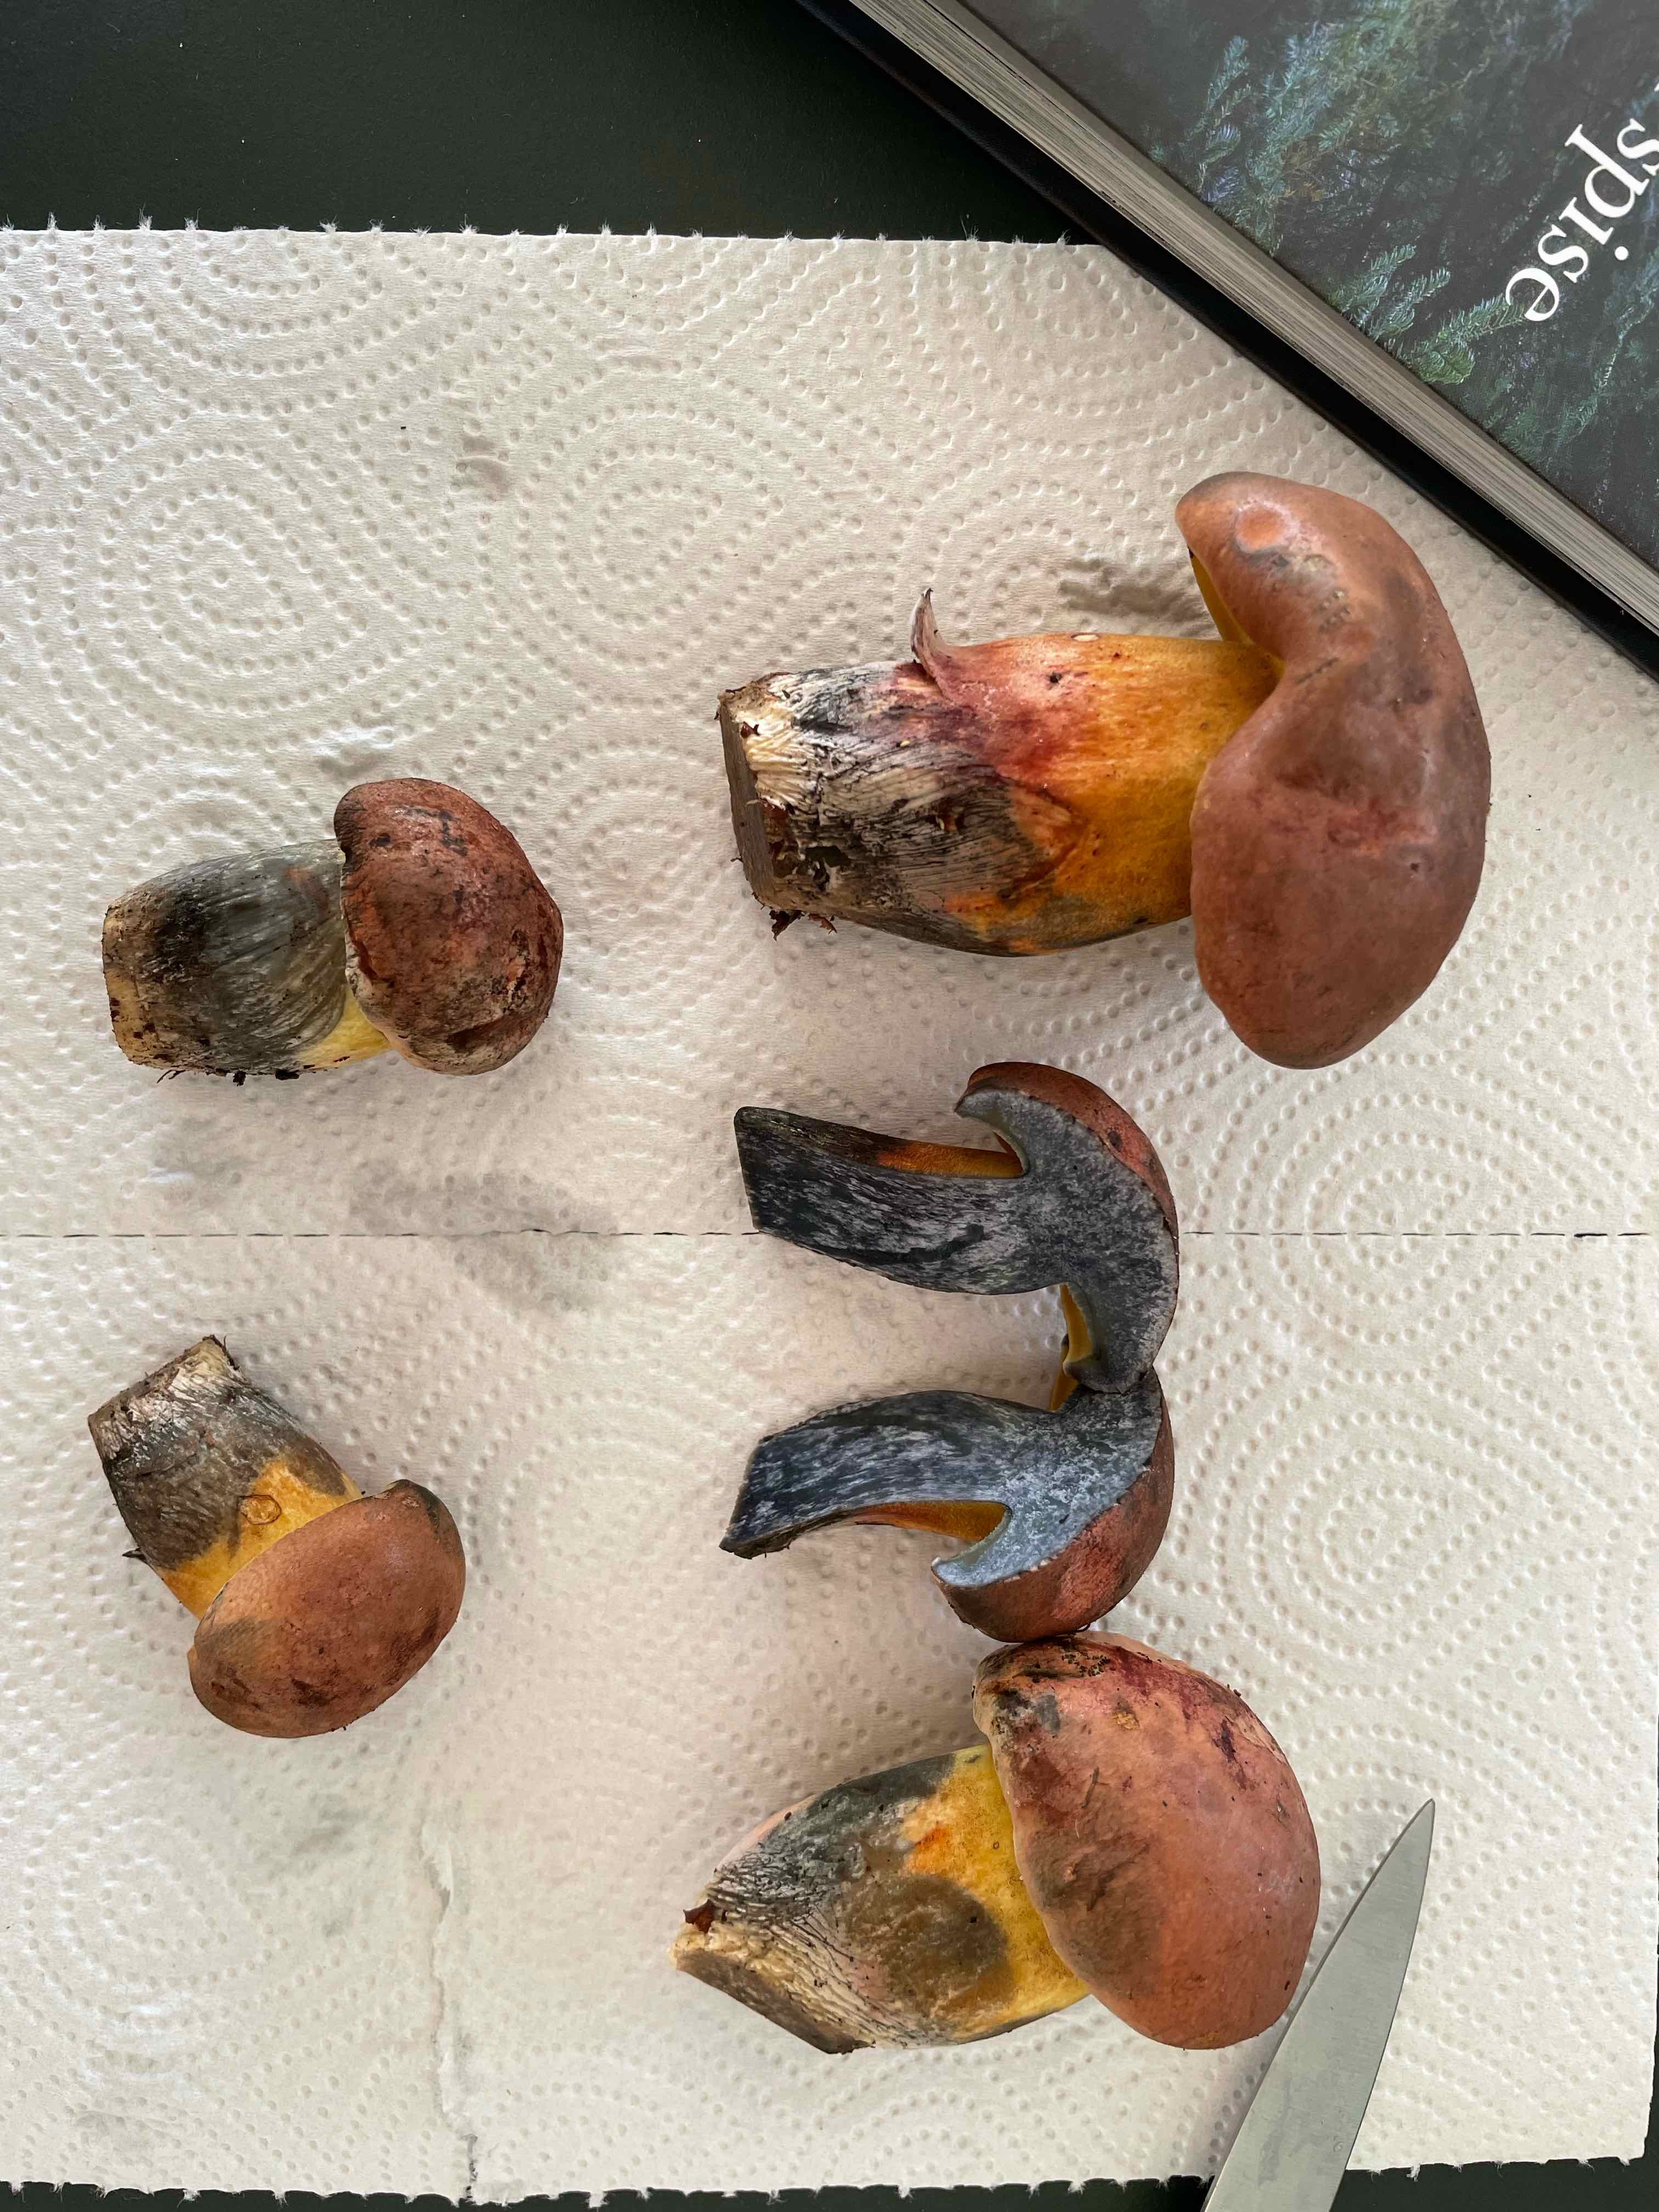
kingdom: Fungi
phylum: Basidiomycota
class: Agaricomycetes
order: Boletales
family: Boletaceae
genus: Cyanoboletus
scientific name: Cyanoboletus pulverulentus
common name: sortblånende rørhat
